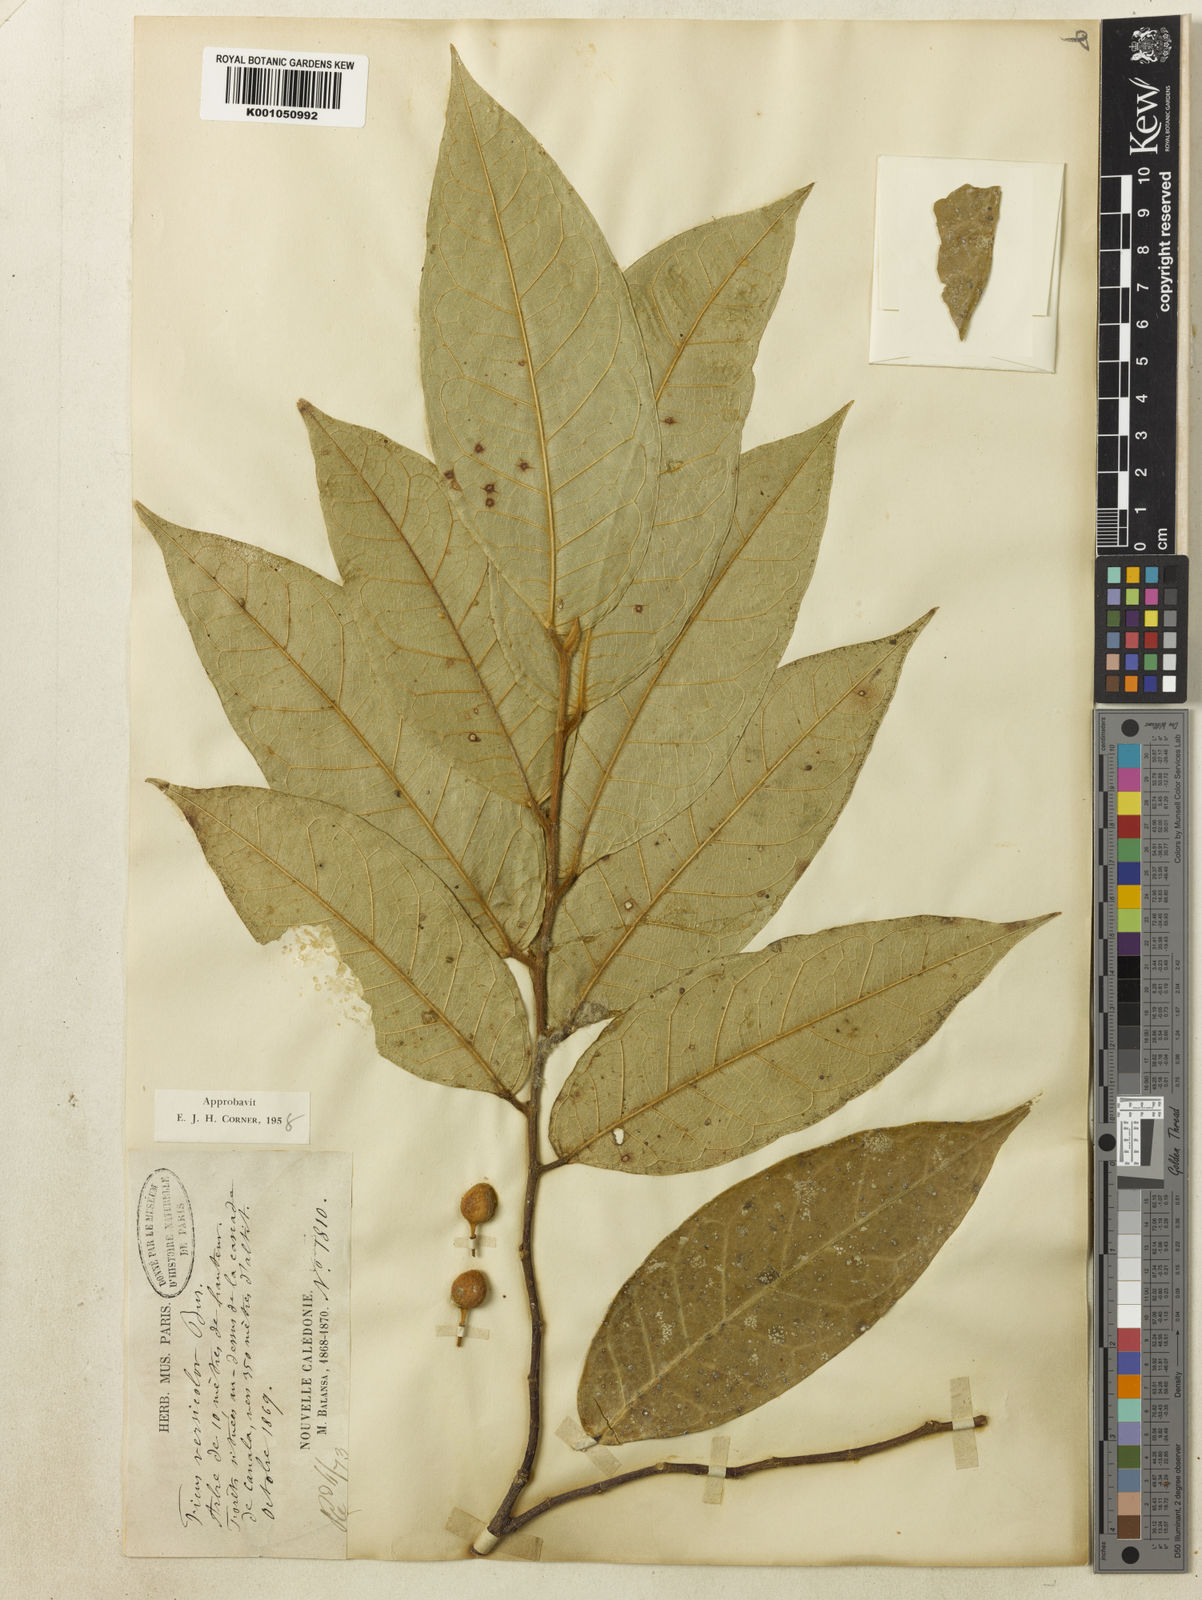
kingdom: Plantae
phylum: Tracheophyta
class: Magnoliopsida
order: Rosales
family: Moraceae
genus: Ficus
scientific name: Ficus versicolor
